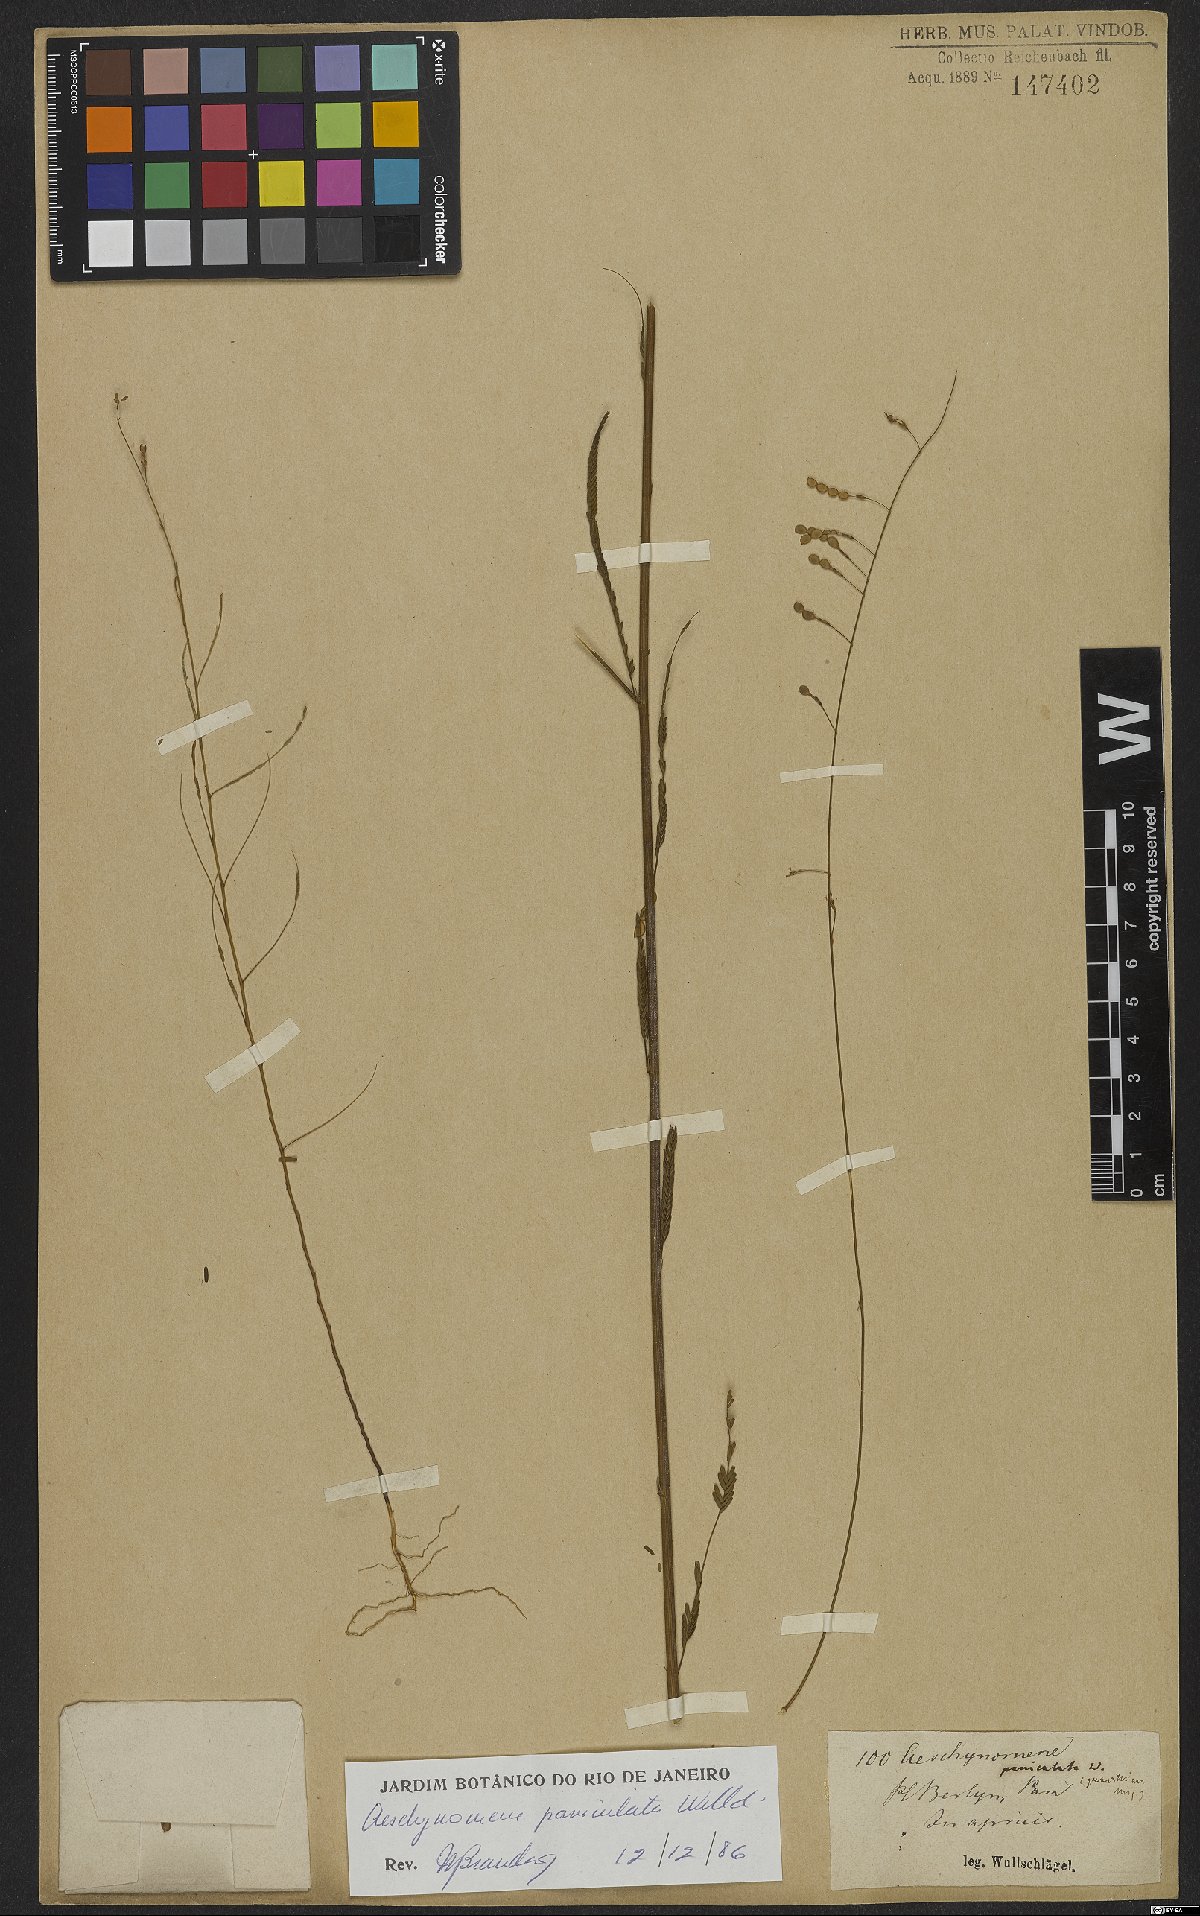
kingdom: Plantae
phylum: Tracheophyta
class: Magnoliopsida
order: Fabales
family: Fabaceae
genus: Ctenodon
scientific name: Ctenodon paniculatus
